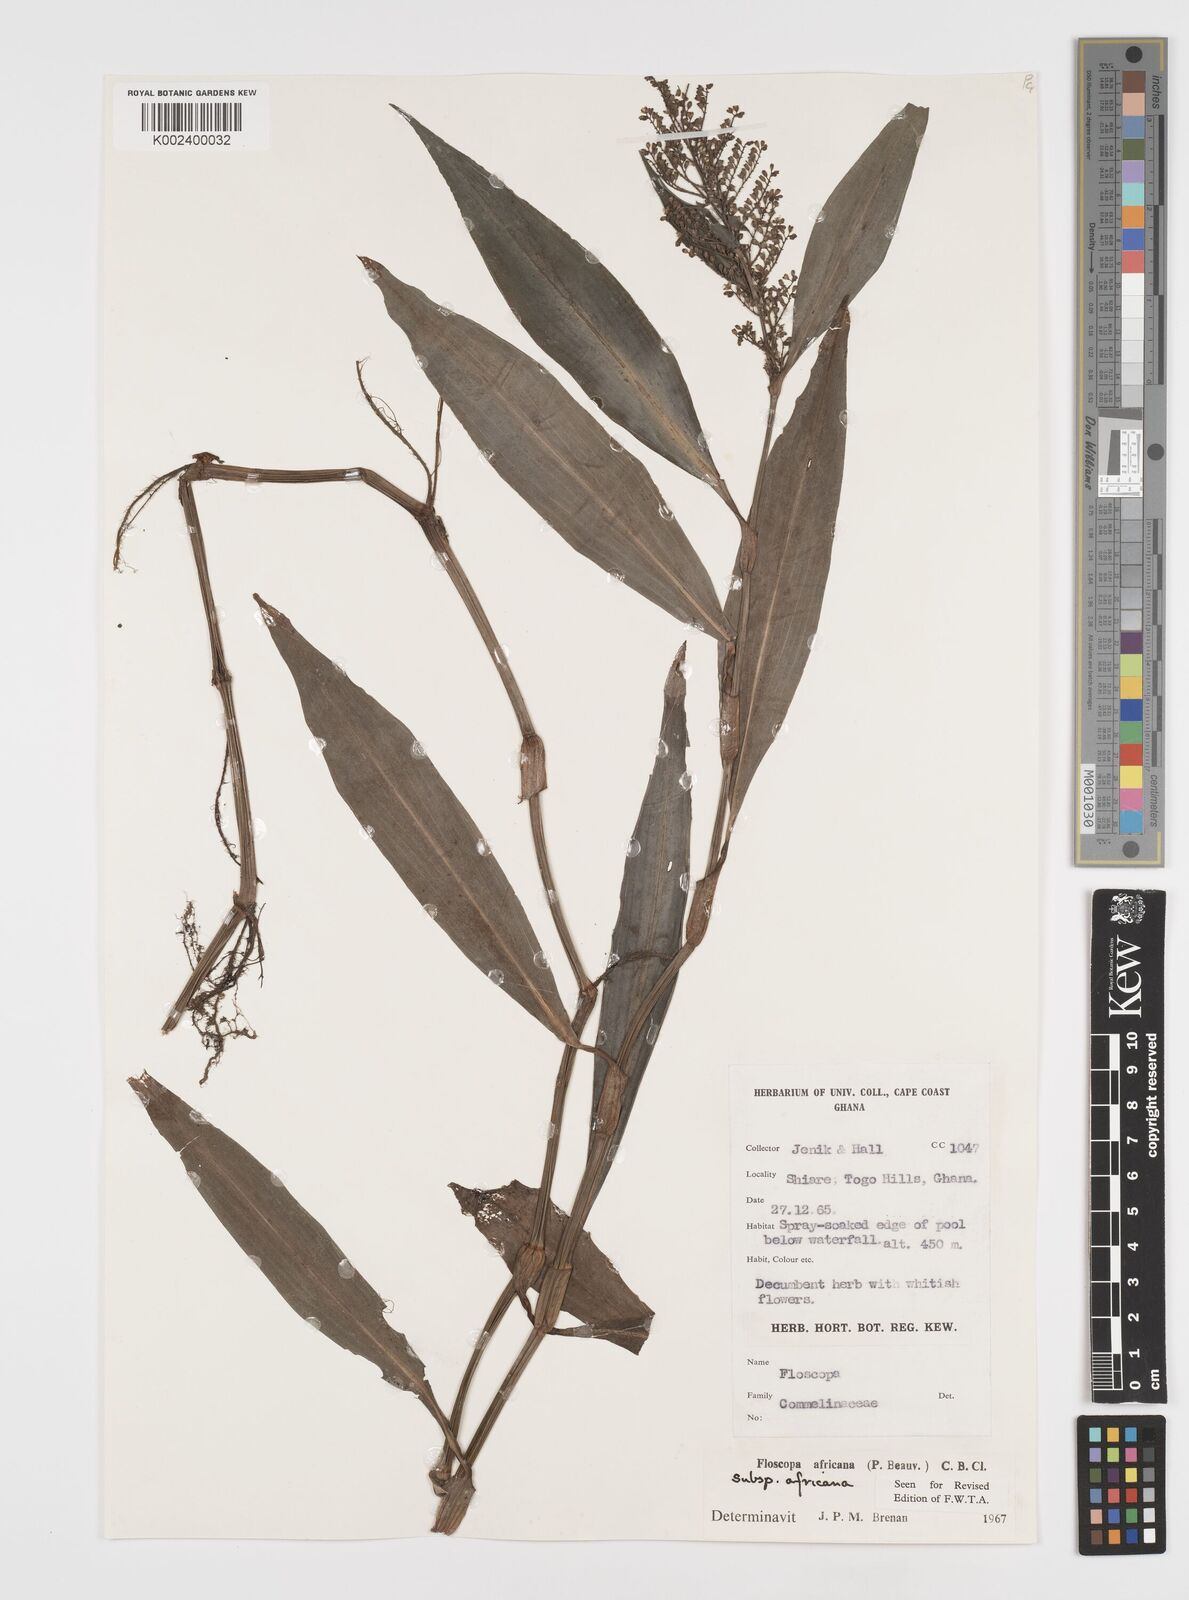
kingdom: Plantae
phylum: Tracheophyta
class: Liliopsida
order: Commelinales
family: Commelinaceae
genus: Floscopa
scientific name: Floscopa africana
